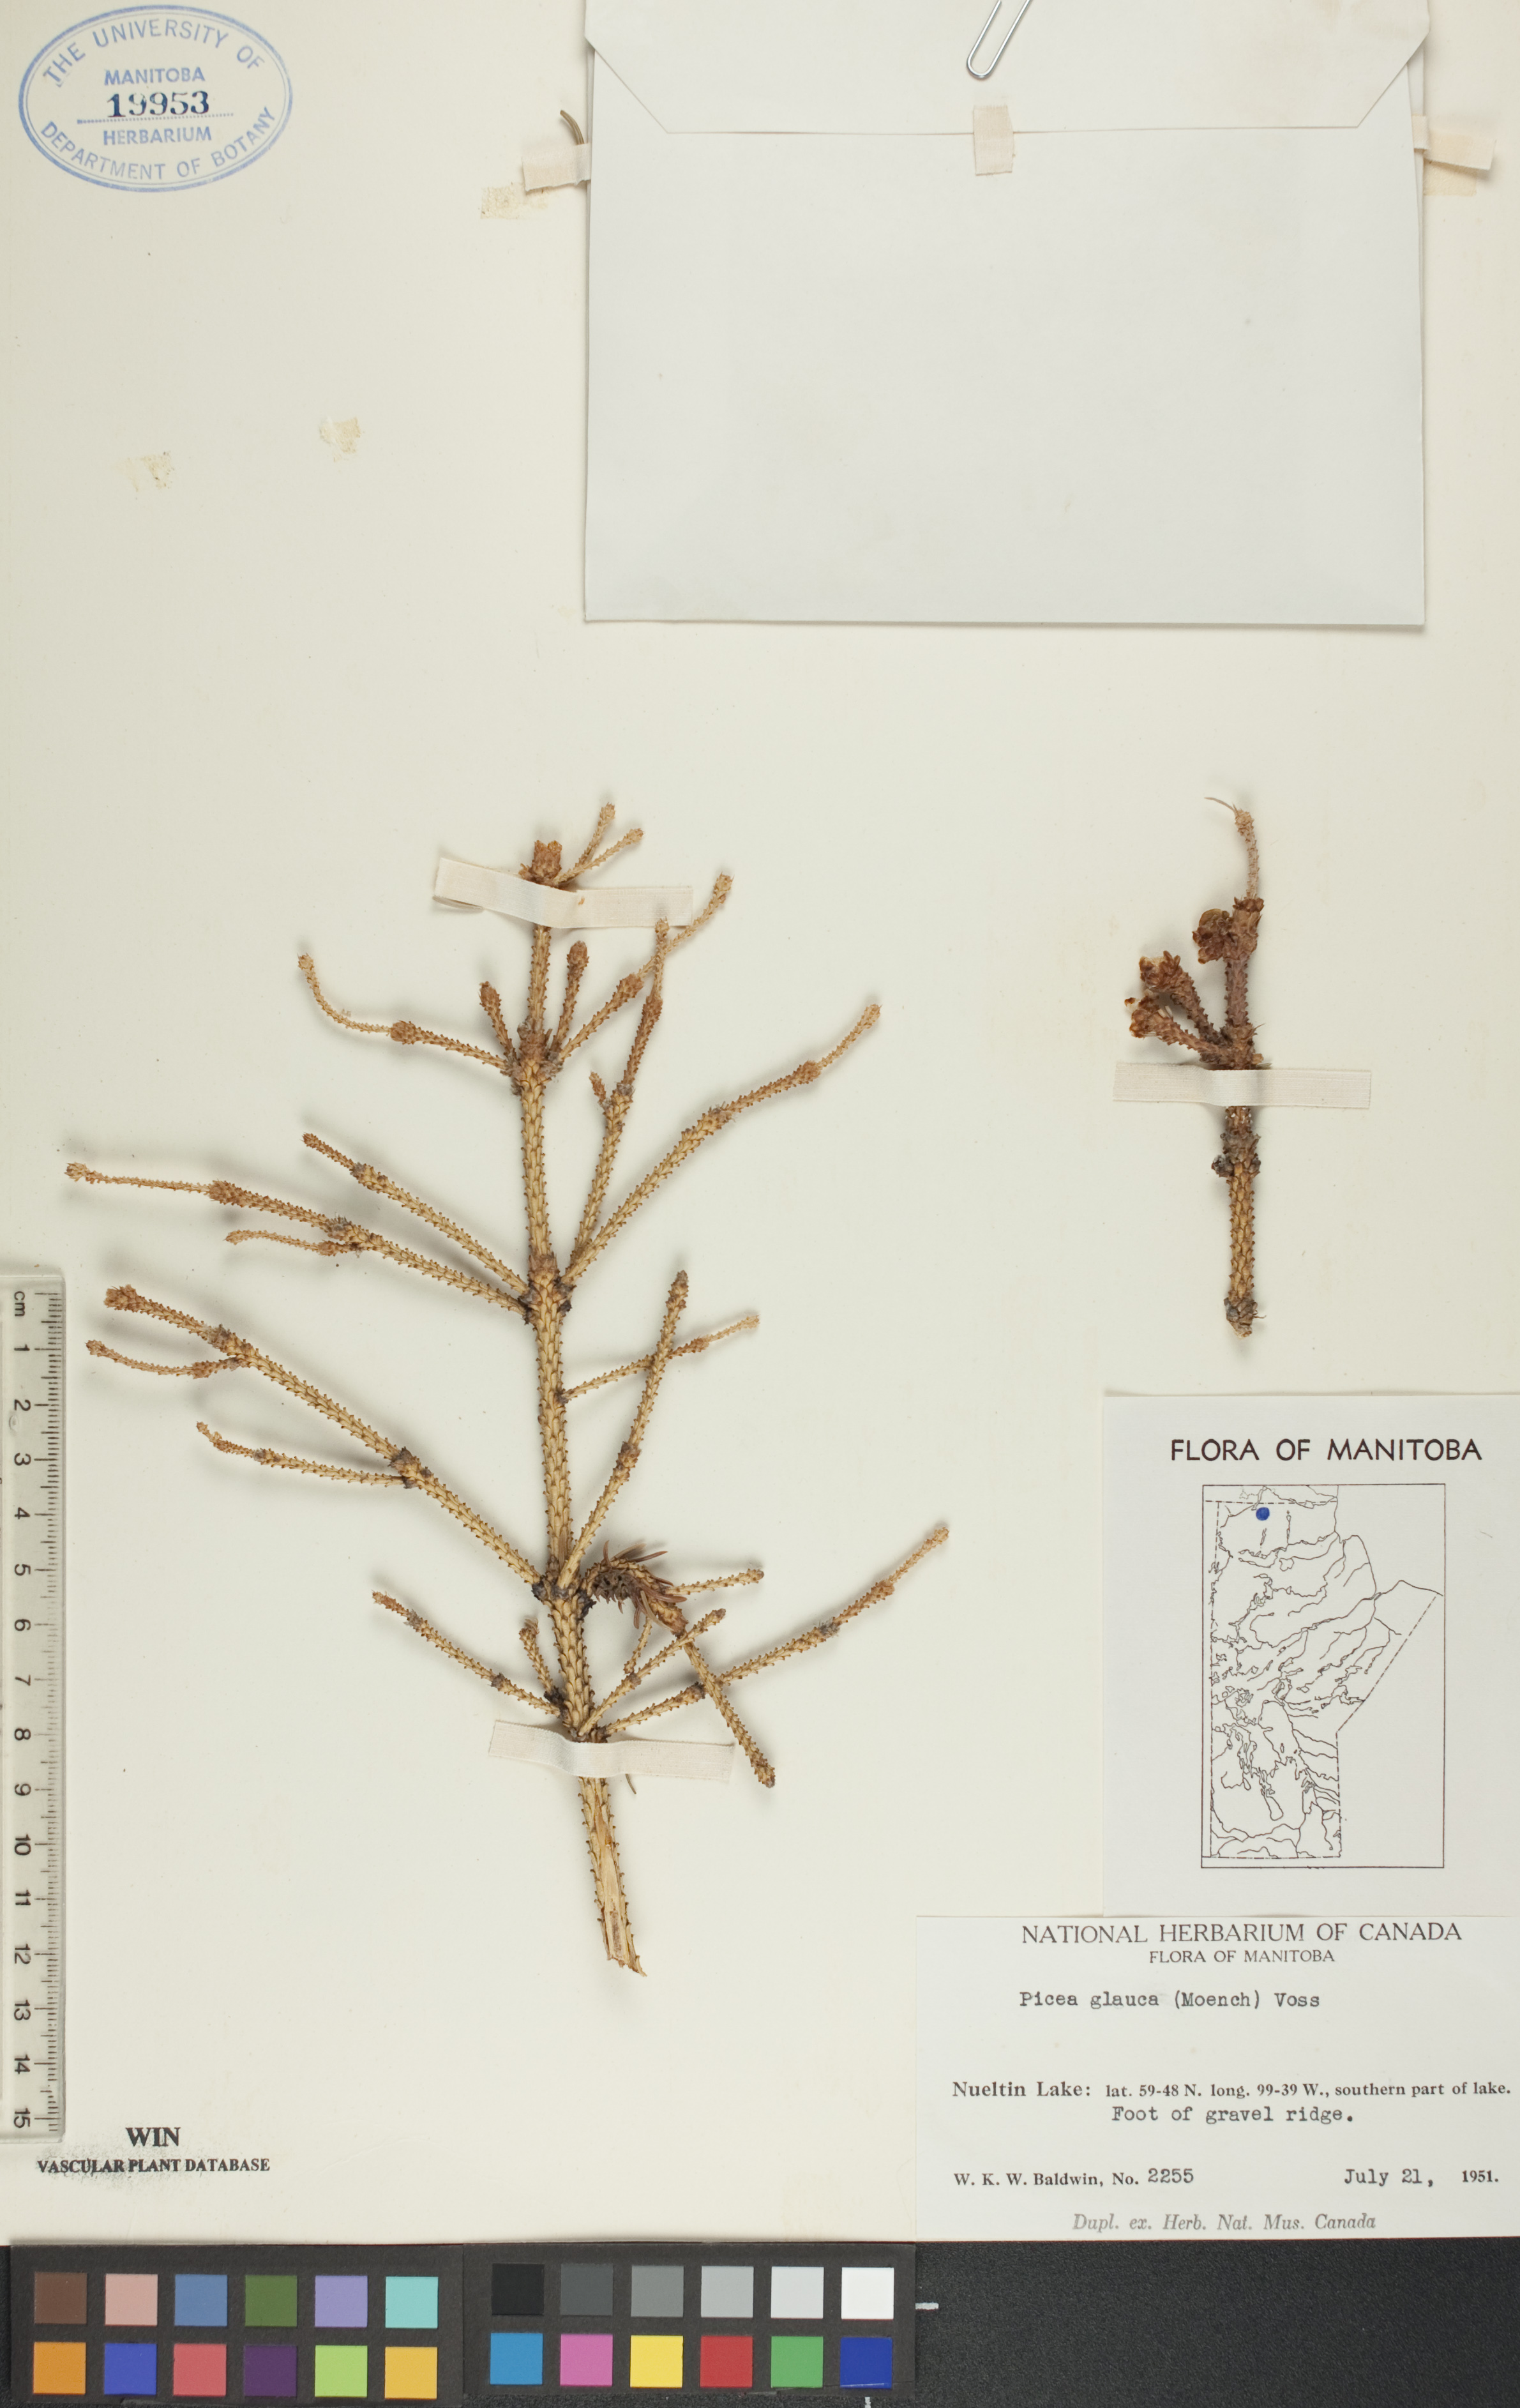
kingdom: Plantae
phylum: Tracheophyta
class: Pinopsida
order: Pinales
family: Pinaceae
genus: Picea
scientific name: Picea glauca
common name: White spruce
